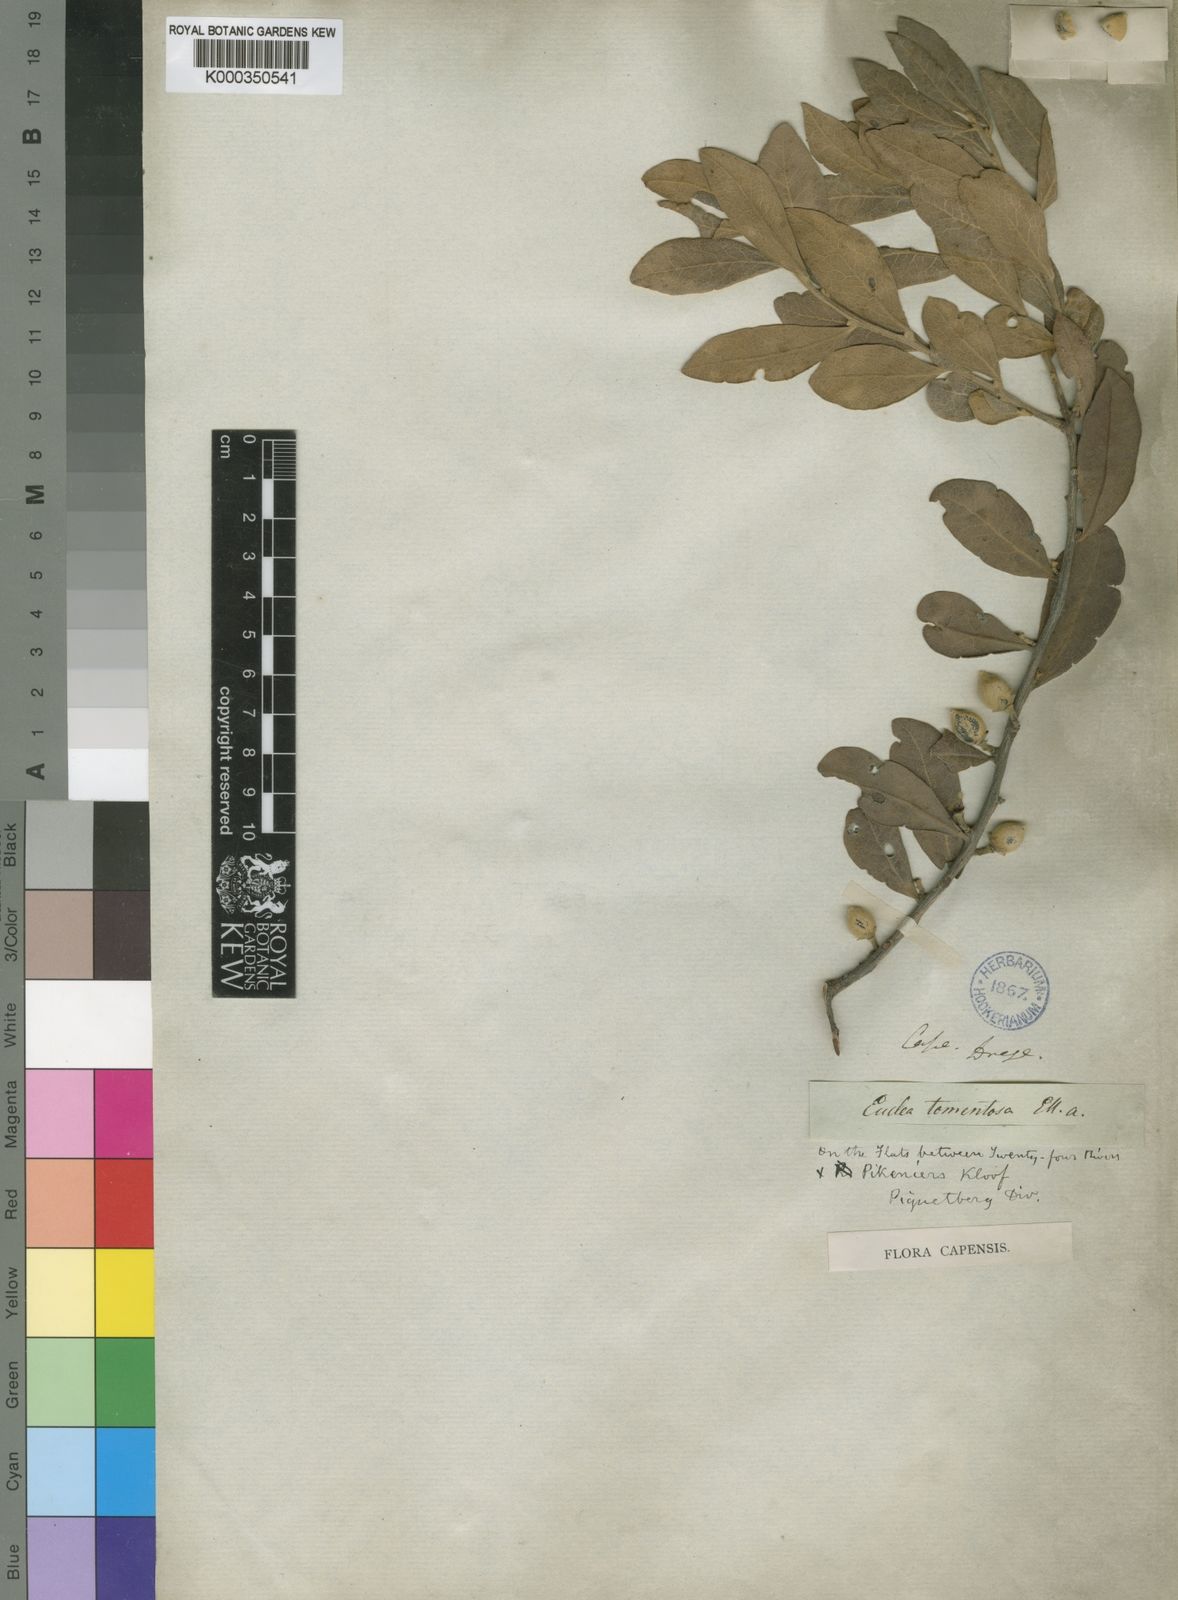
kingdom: Plantae
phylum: Tracheophyta
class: Magnoliopsida
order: Ericales
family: Ebenaceae
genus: Euclea
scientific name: Euclea
